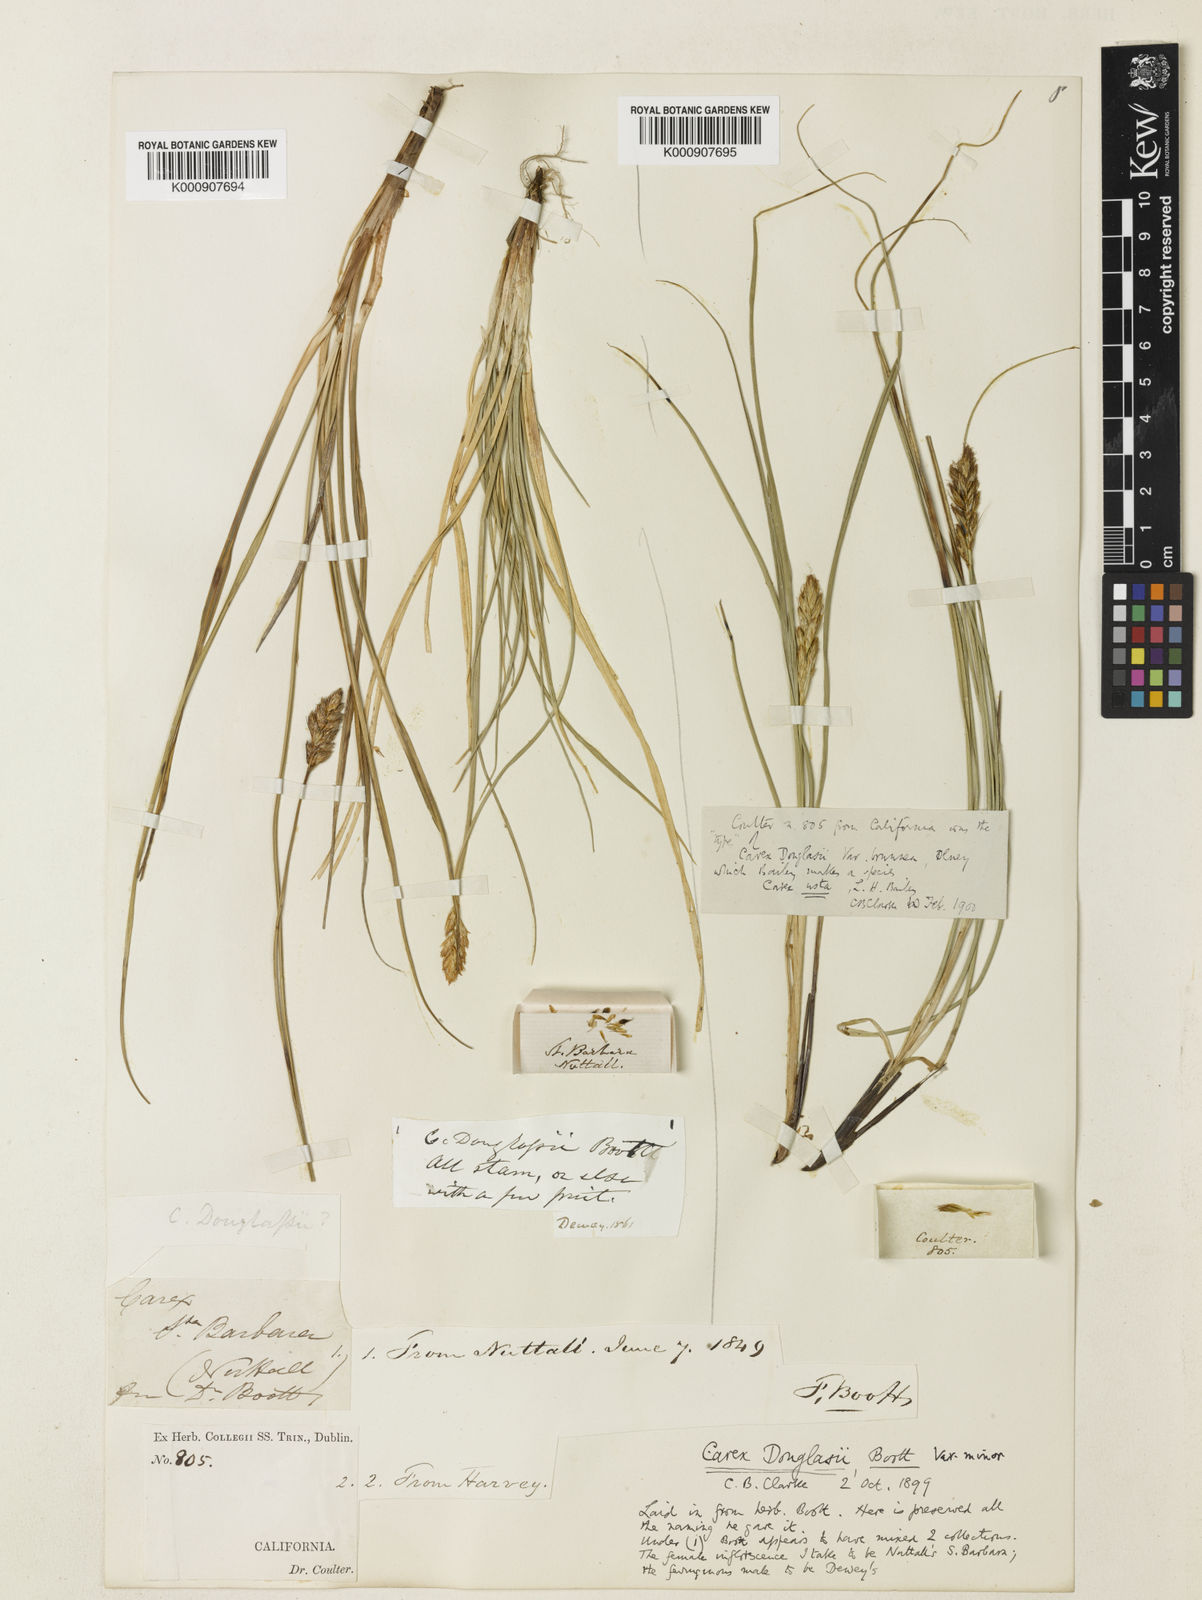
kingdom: Plantae
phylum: Tracheophyta
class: Liliopsida
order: Poales
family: Cyperaceae
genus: Carex
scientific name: Carex praegracilis
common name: Black creeper sedge
